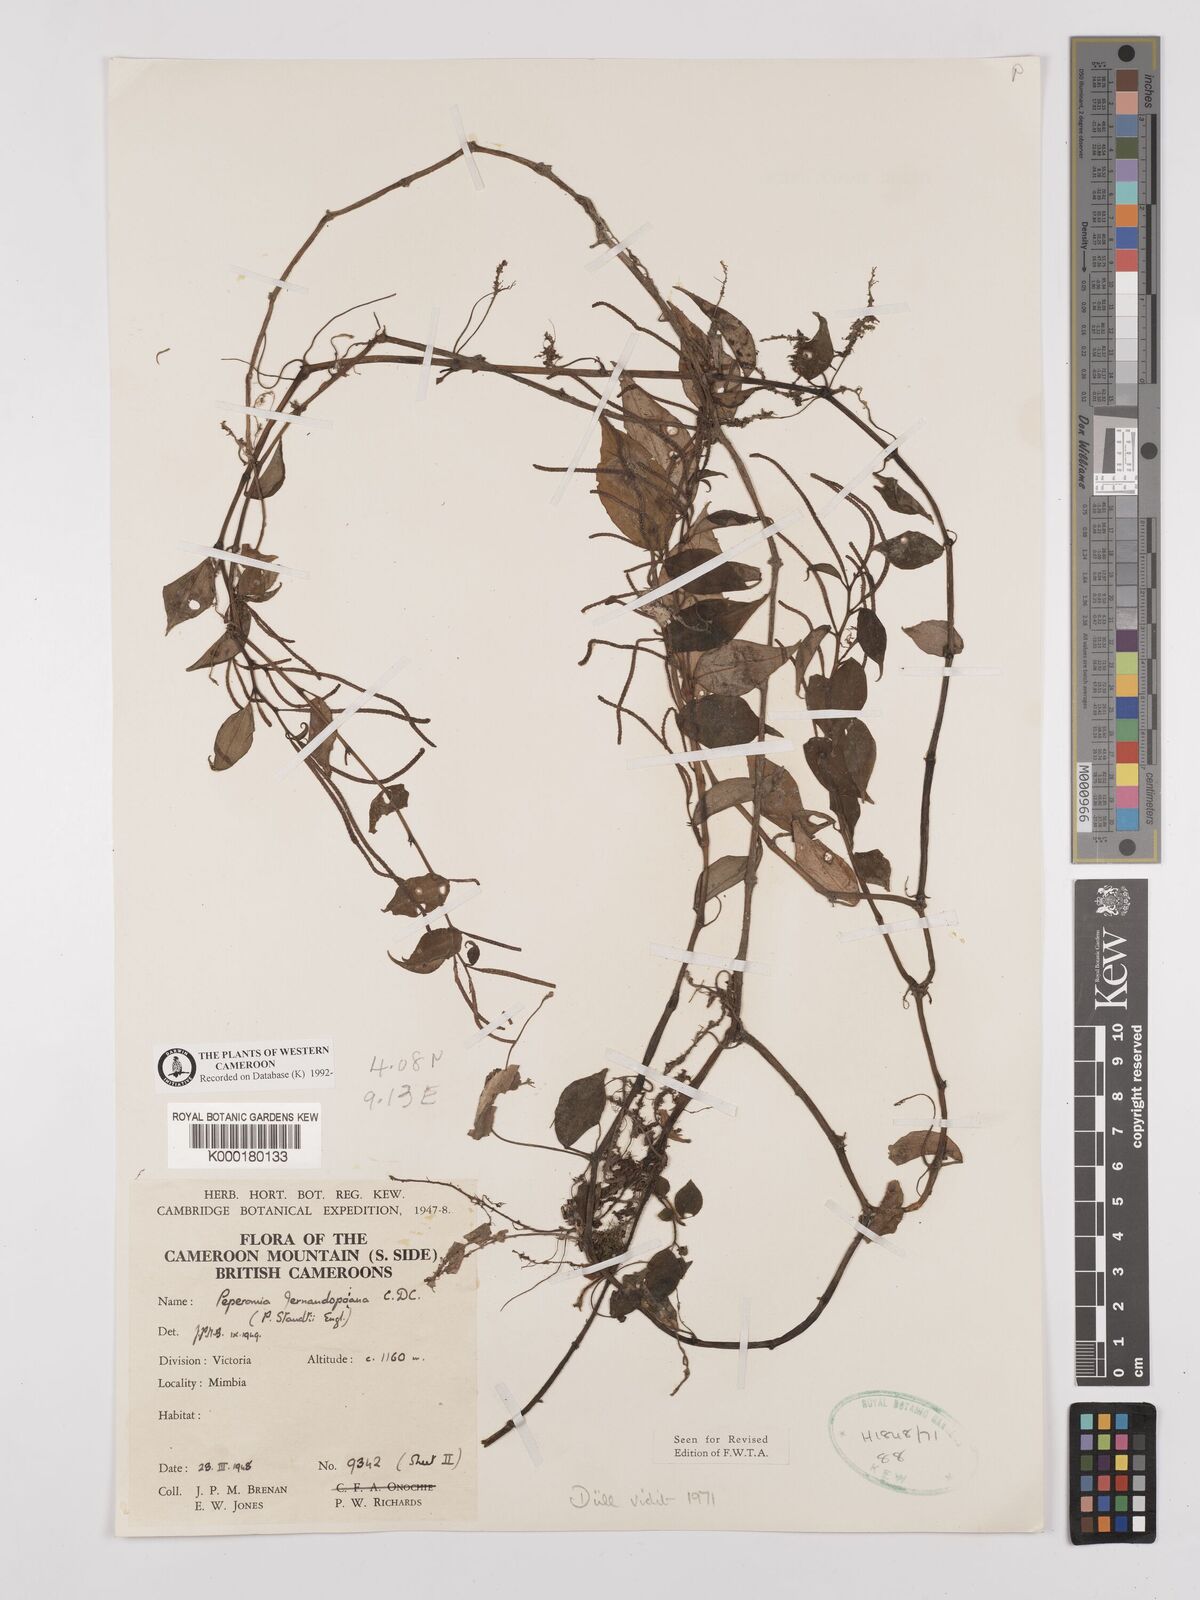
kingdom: Plantae
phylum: Tracheophyta
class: Magnoliopsida
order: Piperales
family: Piperaceae
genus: Peperomia
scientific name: Peperomia fernandopoiana
